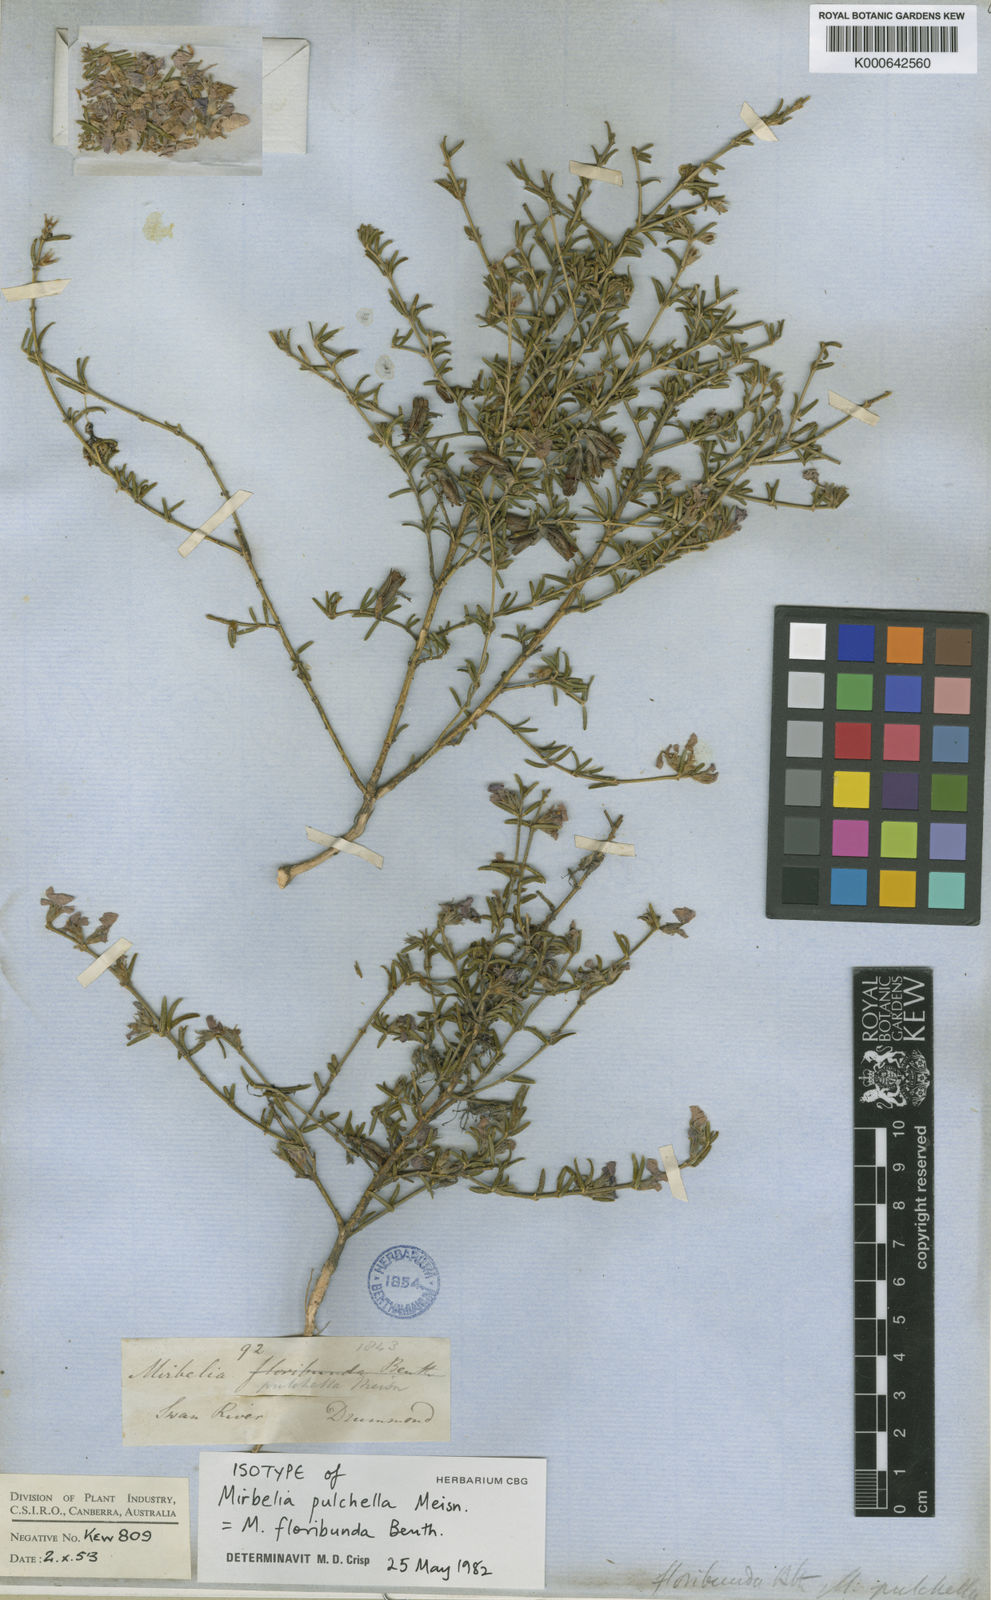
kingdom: Plantae
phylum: Tracheophyta
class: Magnoliopsida
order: Fabales
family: Fabaceae
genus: Mirbelia
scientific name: Mirbelia floribunda
